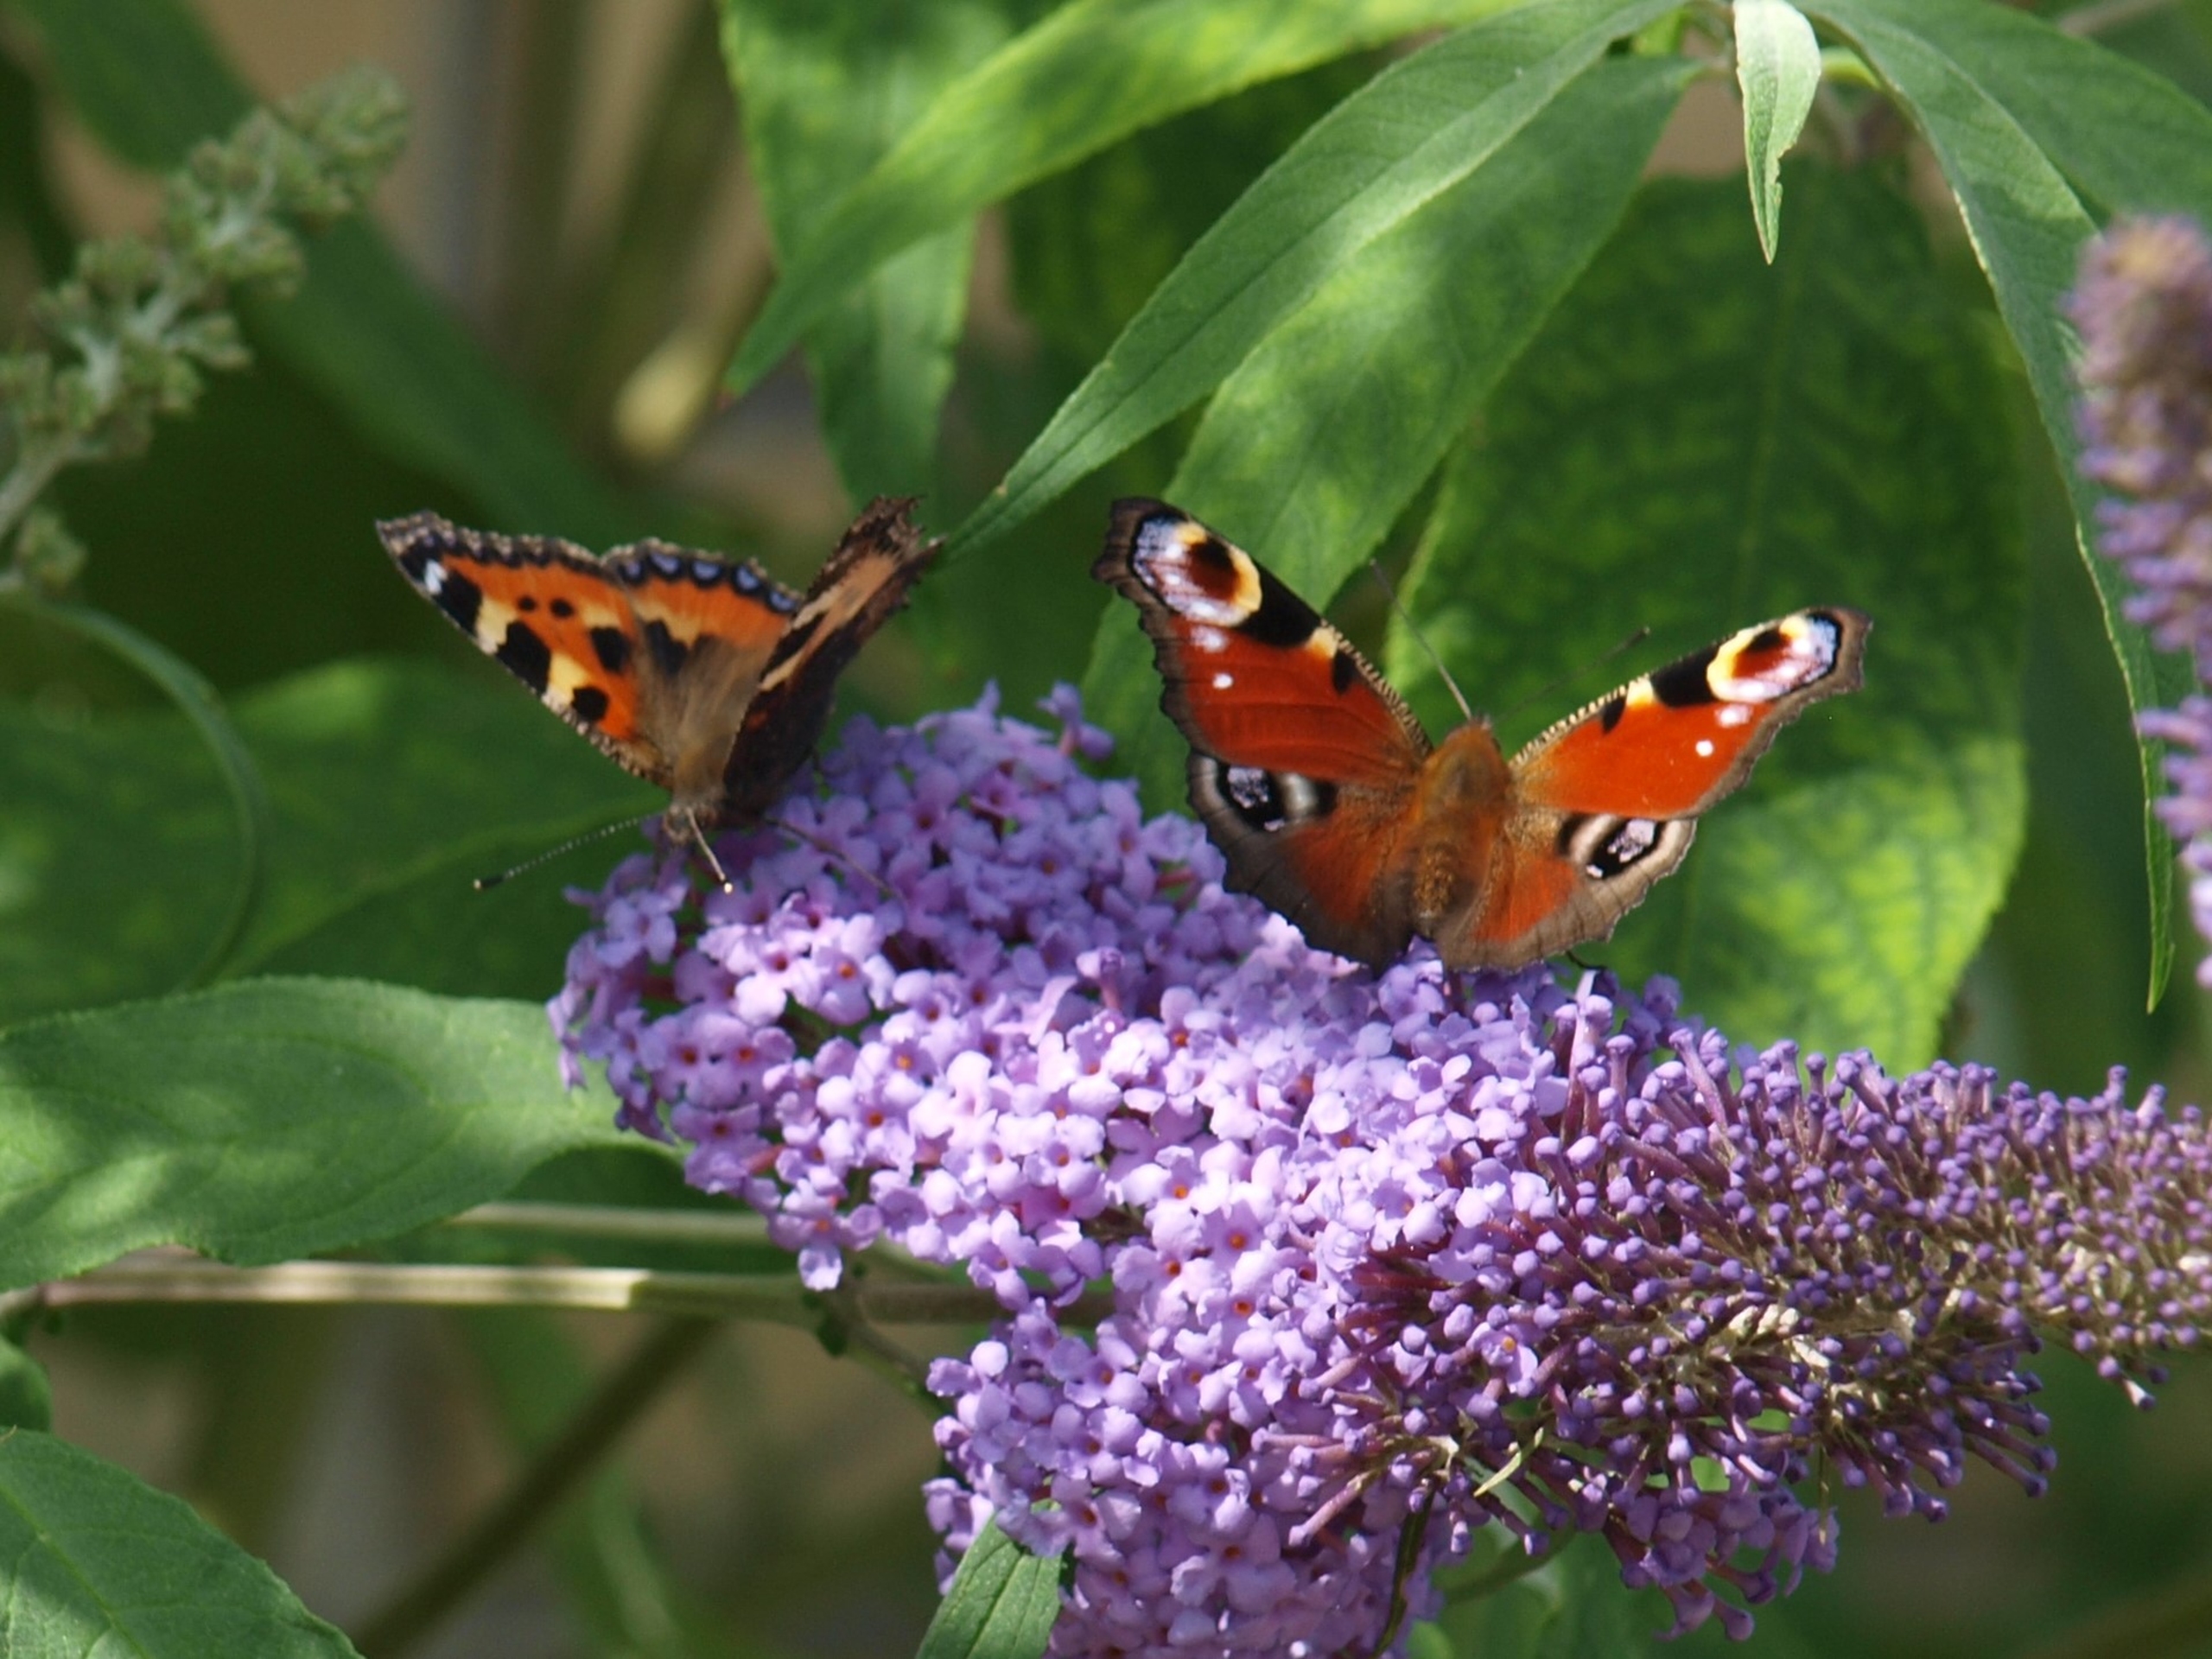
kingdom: Animalia
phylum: Arthropoda
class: Insecta
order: Lepidoptera
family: Nymphalidae
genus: Aglais
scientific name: Aglais urticae
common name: Nældens takvinge
